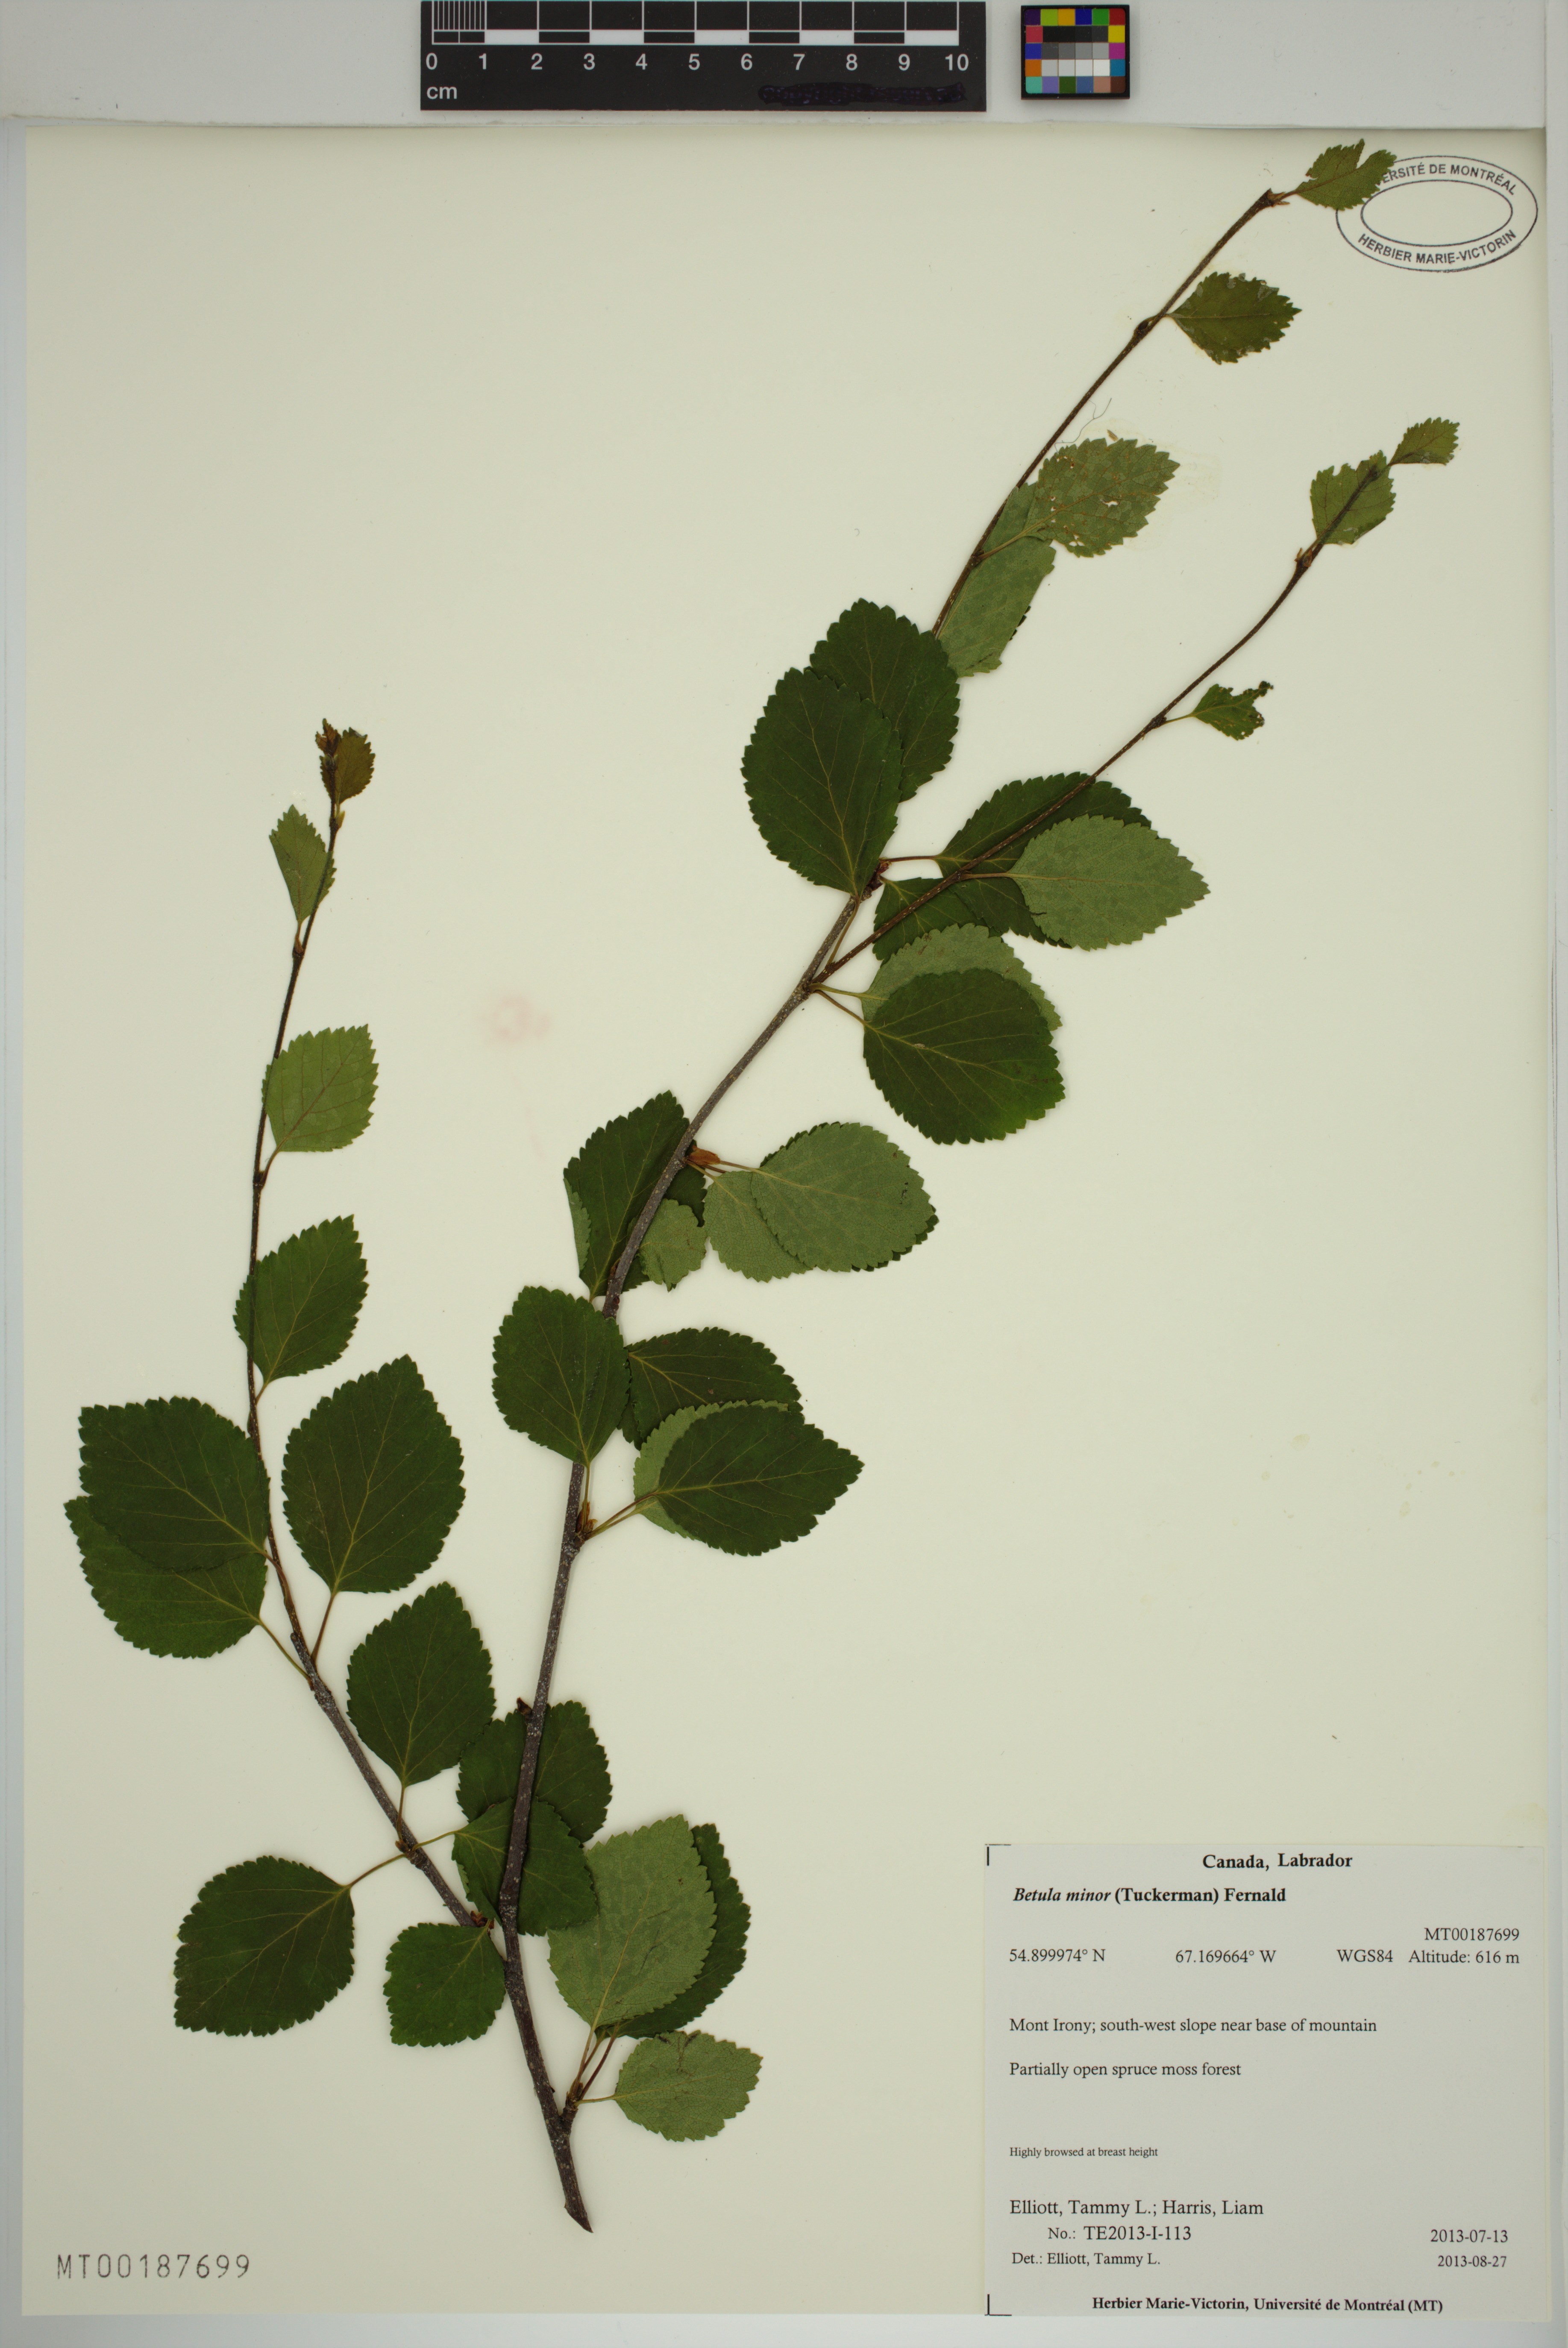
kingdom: Plantae
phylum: Tracheophyta
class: Magnoliopsida
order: Fagales
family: Betulaceae
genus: Betula
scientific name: Betula minor
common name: Dwarf birch
